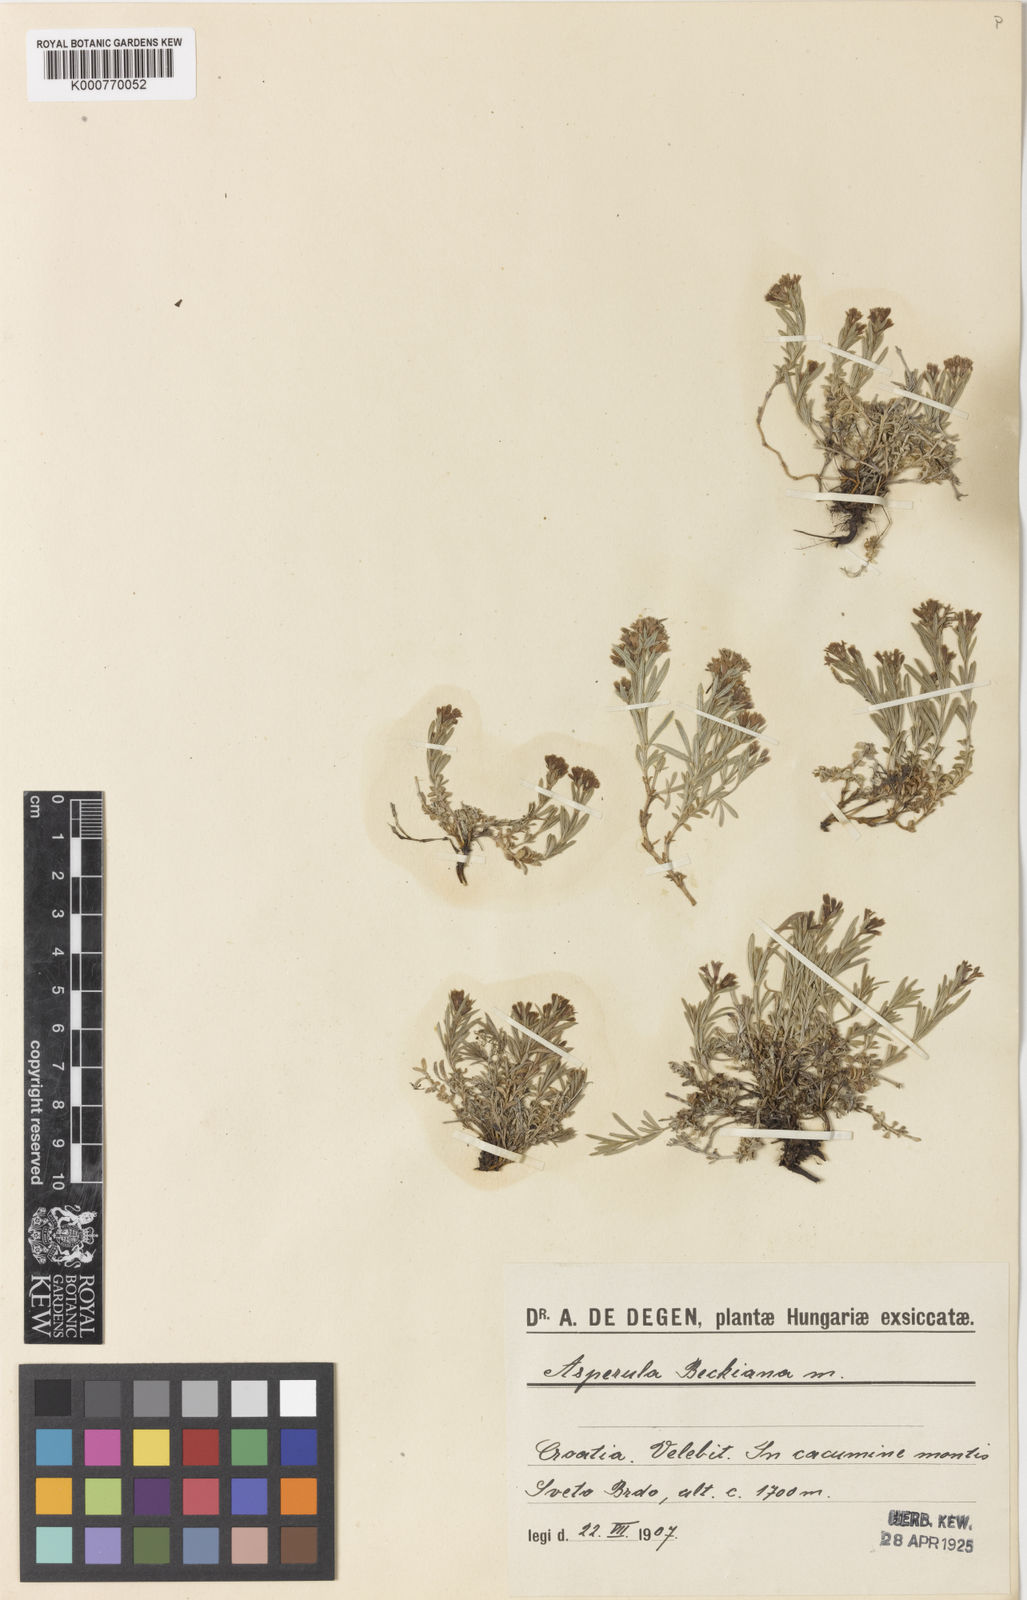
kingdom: Plantae
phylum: Tracheophyta
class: Magnoliopsida
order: Gentianales
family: Rubiaceae
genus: Cynanchica
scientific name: Cynanchica beckiana
